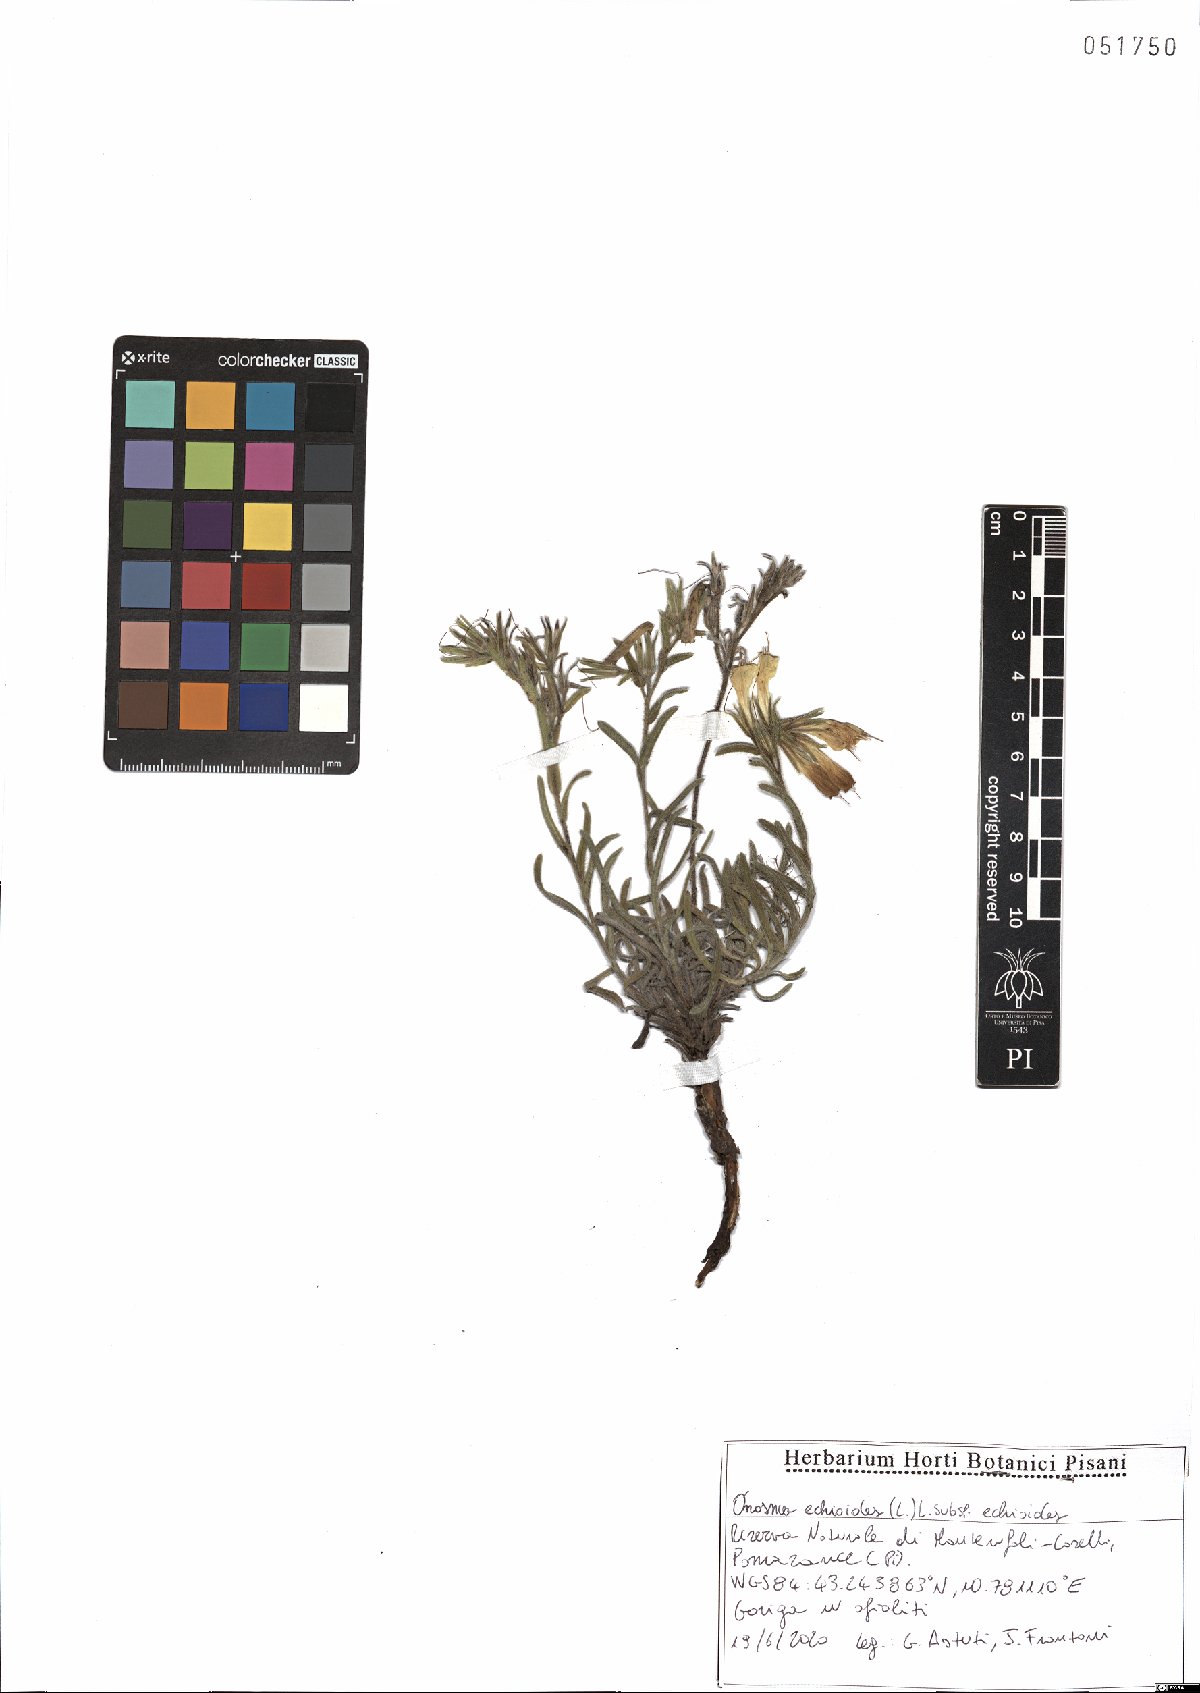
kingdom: Plantae
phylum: Tracheophyta
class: Magnoliopsida
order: Boraginales
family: Boraginaceae
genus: Onosma
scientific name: Onosma echioides
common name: Goldendrop
